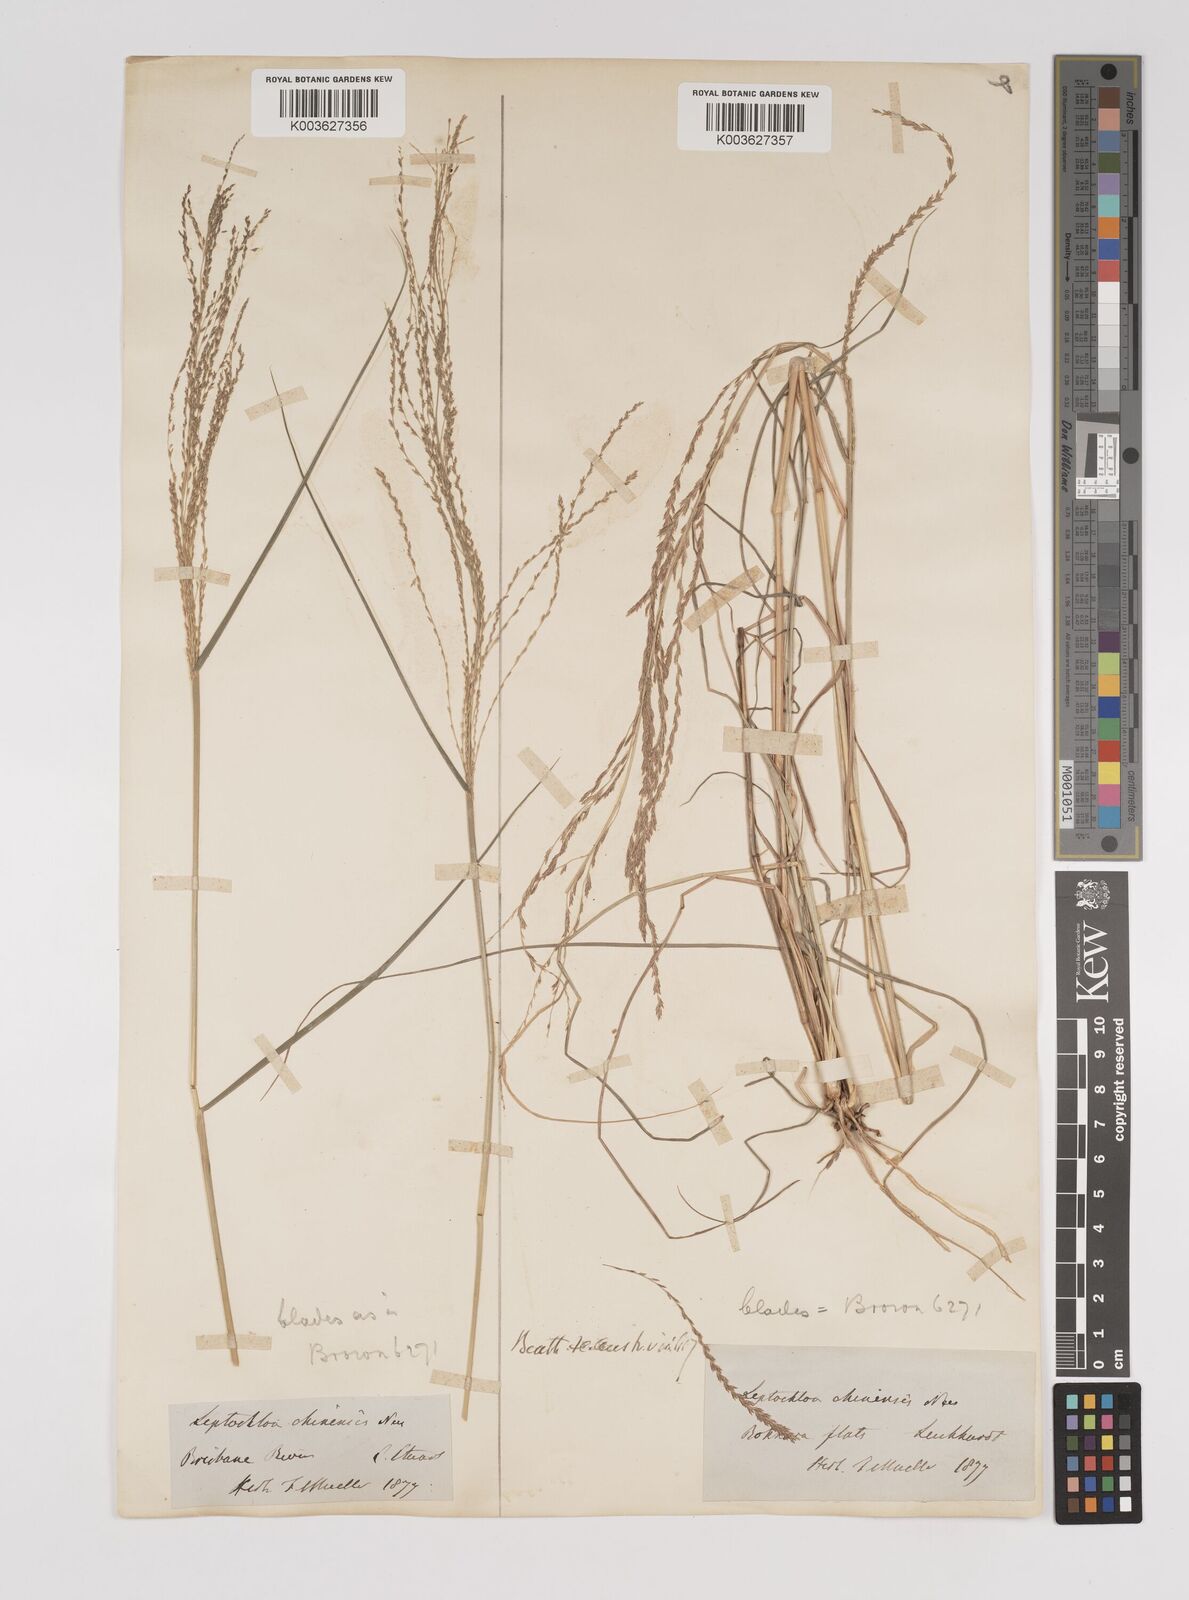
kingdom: Plantae
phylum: Tracheophyta
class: Liliopsida
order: Poales
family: Poaceae
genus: Leptochloa
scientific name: Leptochloa decipiens
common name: Australian sprangletop
